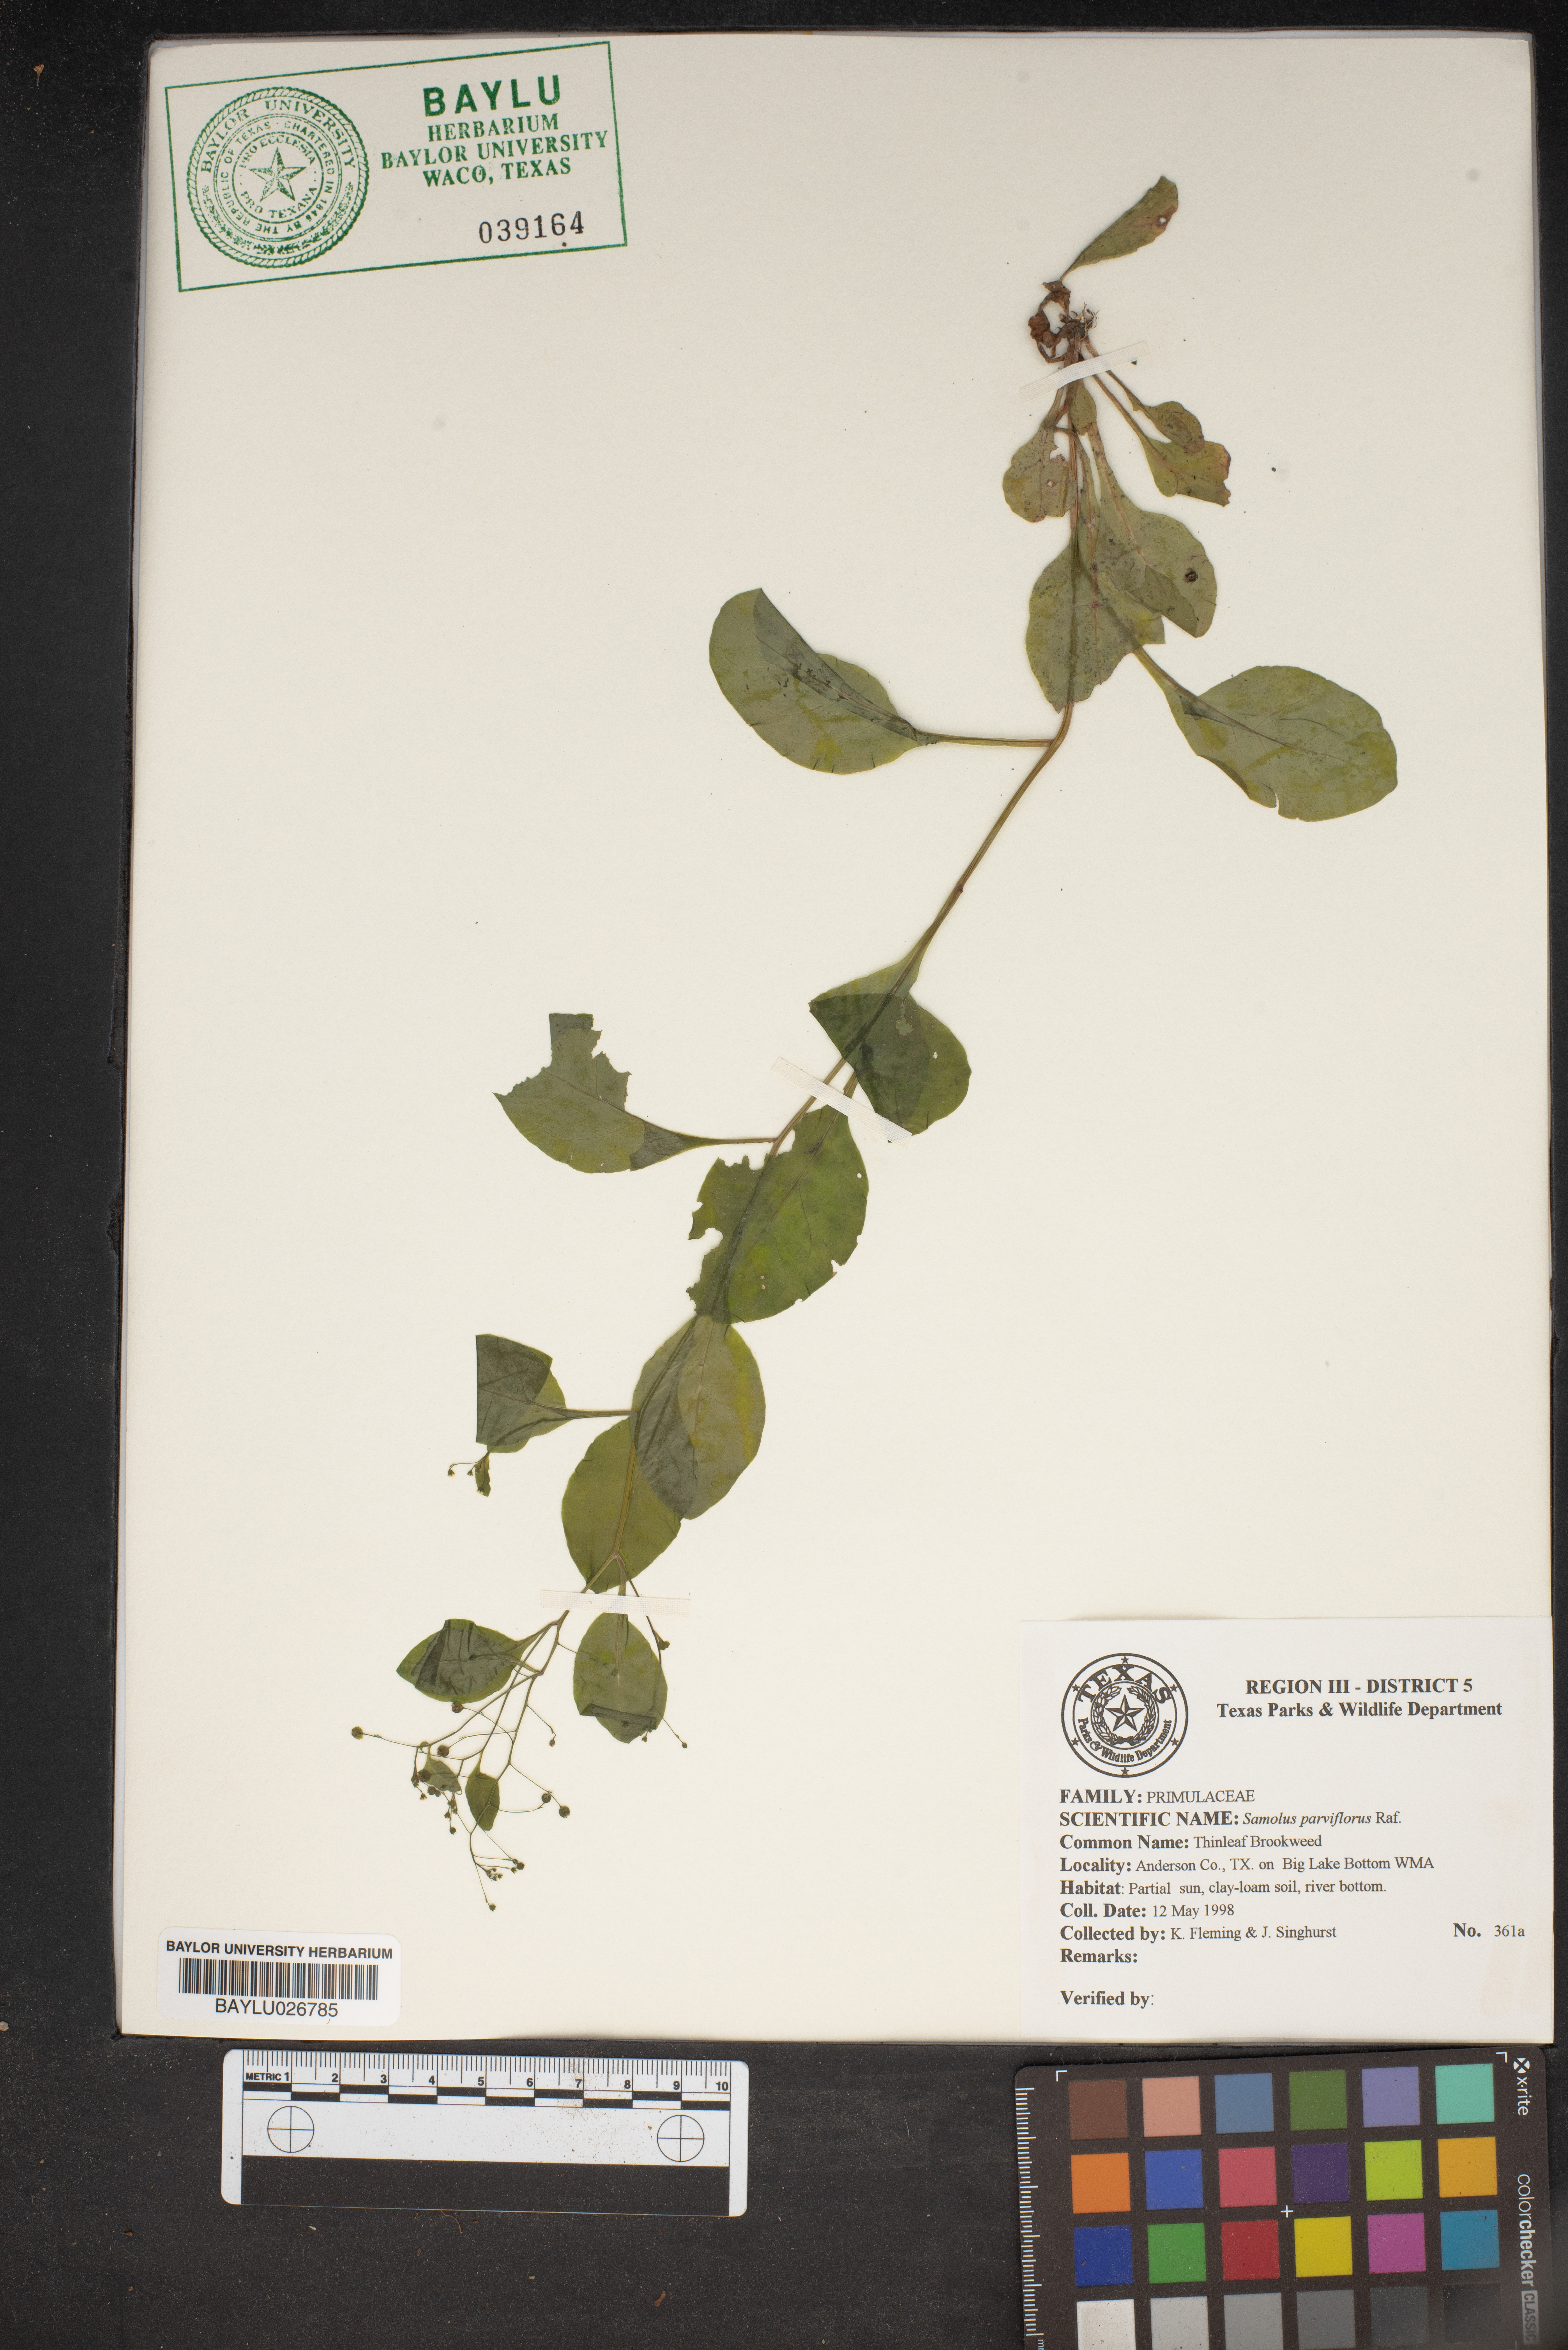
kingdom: Plantae
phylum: Tracheophyta
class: Magnoliopsida
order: Ericales
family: Primulaceae
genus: Samolus
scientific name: Samolus parviflorus
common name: False water pimpernel
